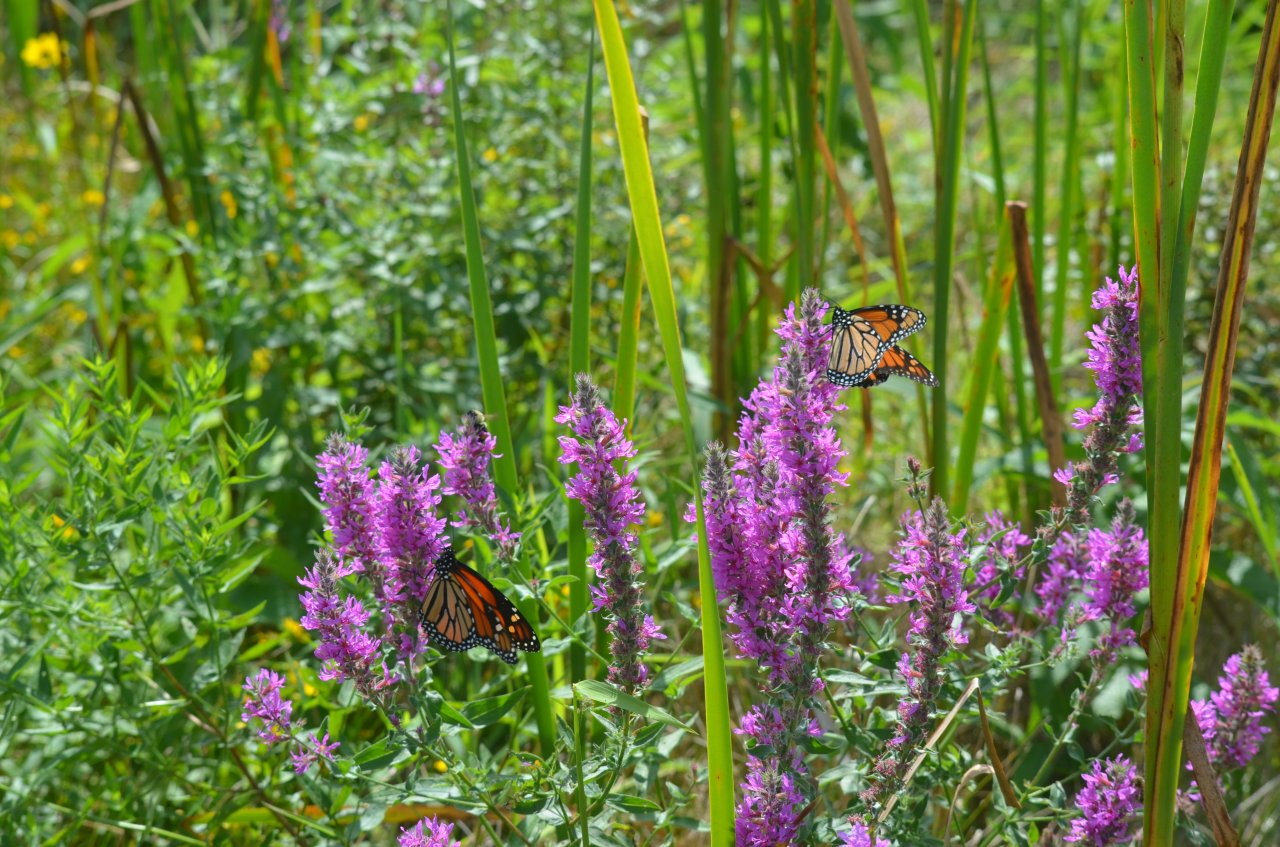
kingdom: Animalia
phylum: Arthropoda
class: Insecta
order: Lepidoptera
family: Nymphalidae
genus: Danaus
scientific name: Danaus plexippus
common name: Monarch
